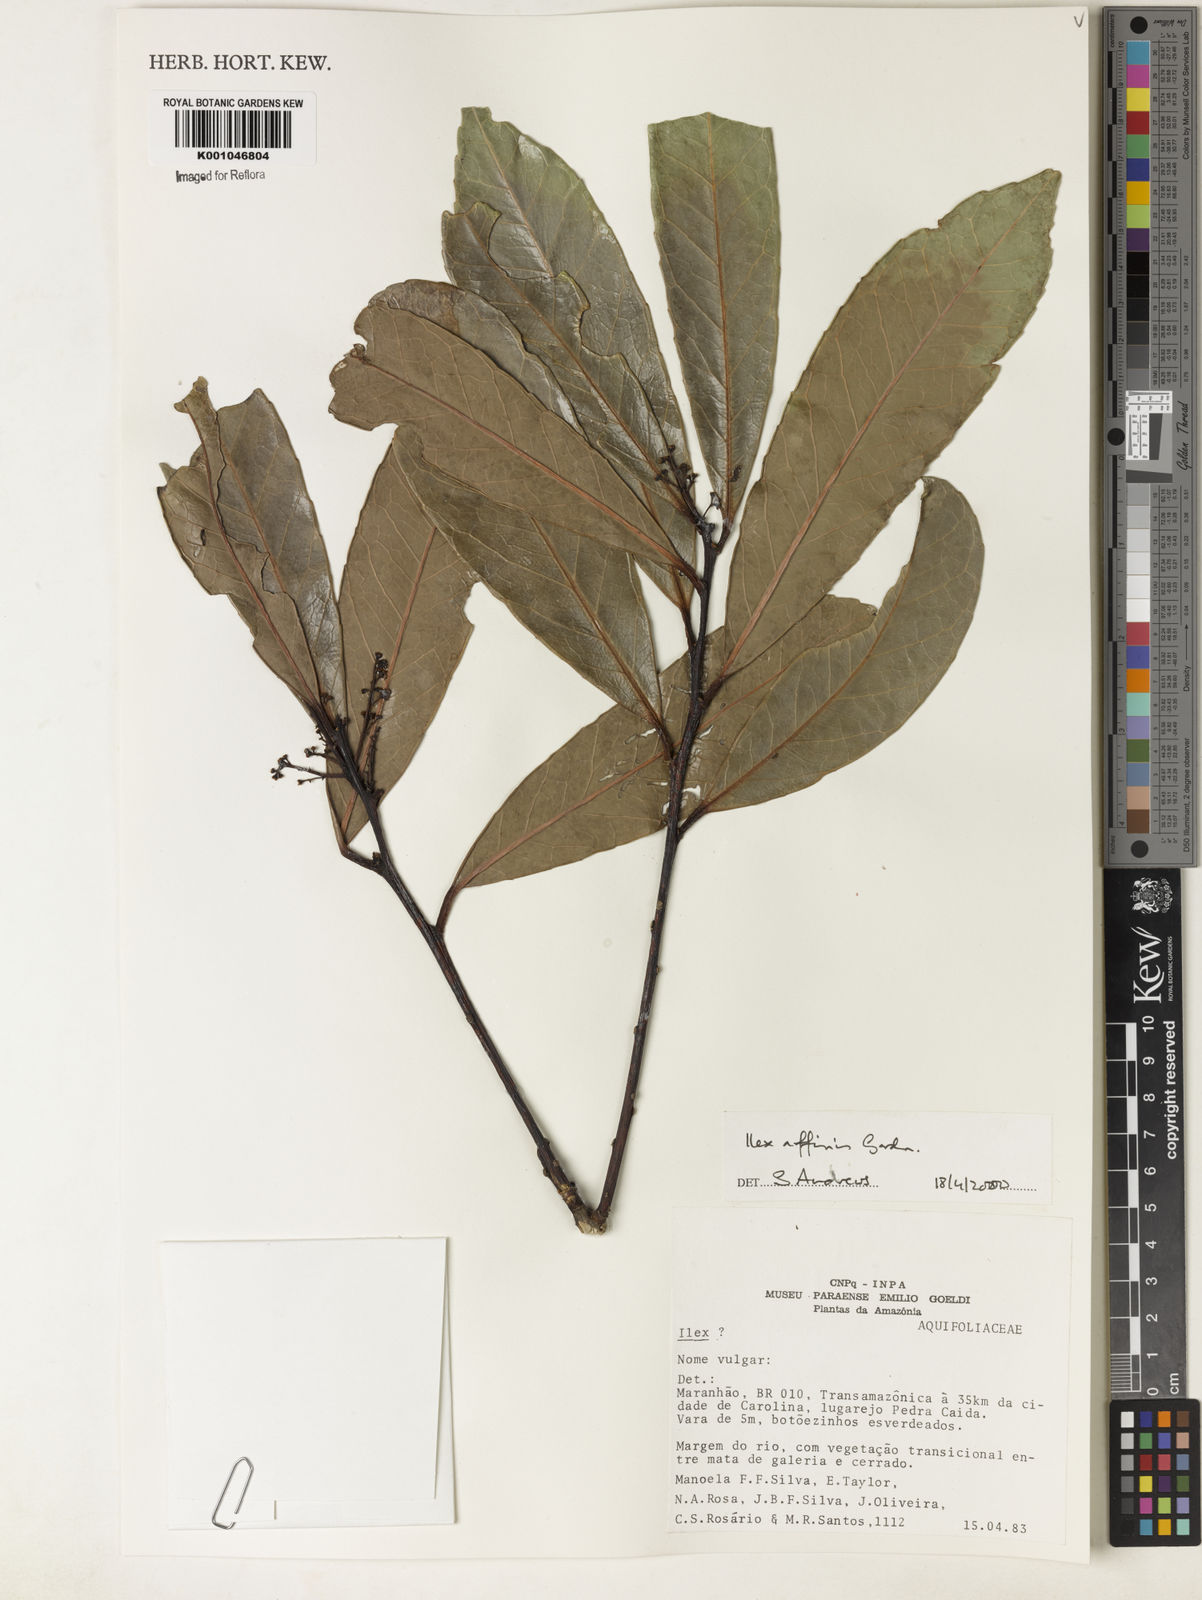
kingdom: Plantae
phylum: Tracheophyta
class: Magnoliopsida
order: Aquifoliales
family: Aquifoliaceae
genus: Ilex
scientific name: Ilex affinis
